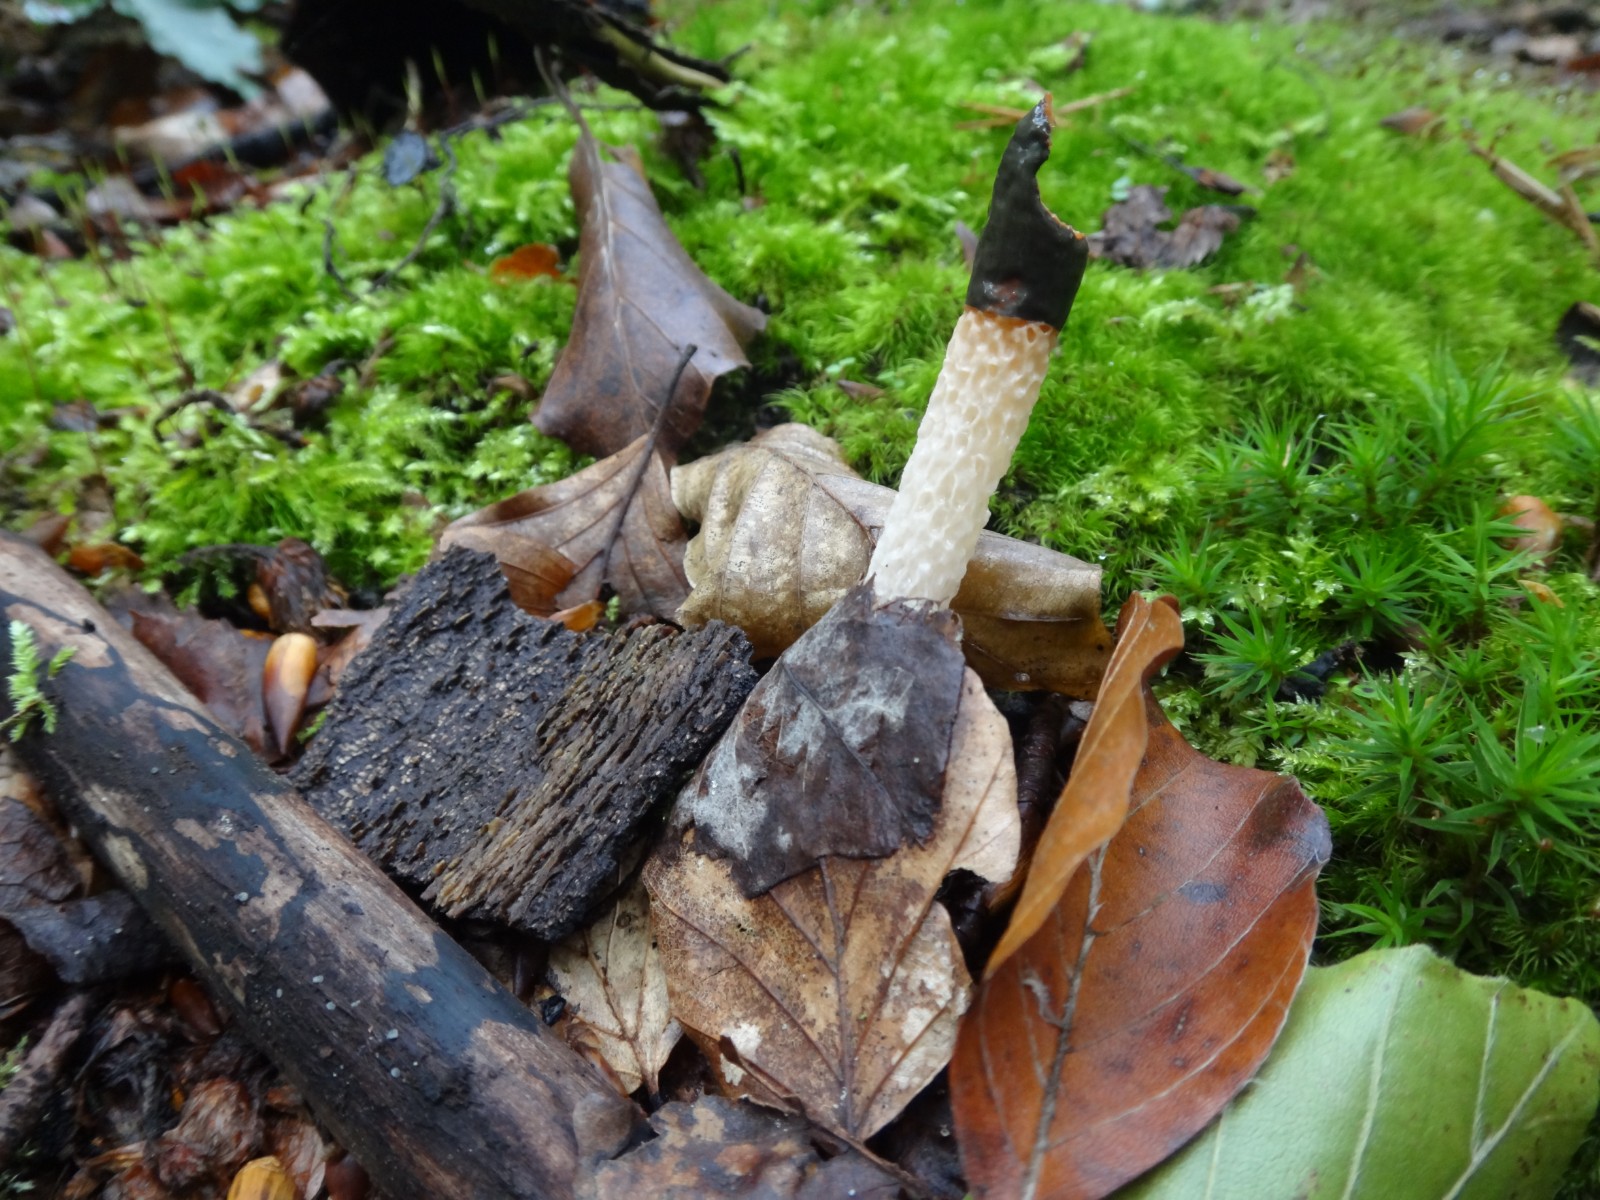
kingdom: Fungi
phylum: Basidiomycota
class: Agaricomycetes
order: Phallales
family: Phallaceae
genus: Mutinus
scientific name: Mutinus caninus
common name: hunde-stinksvamp
